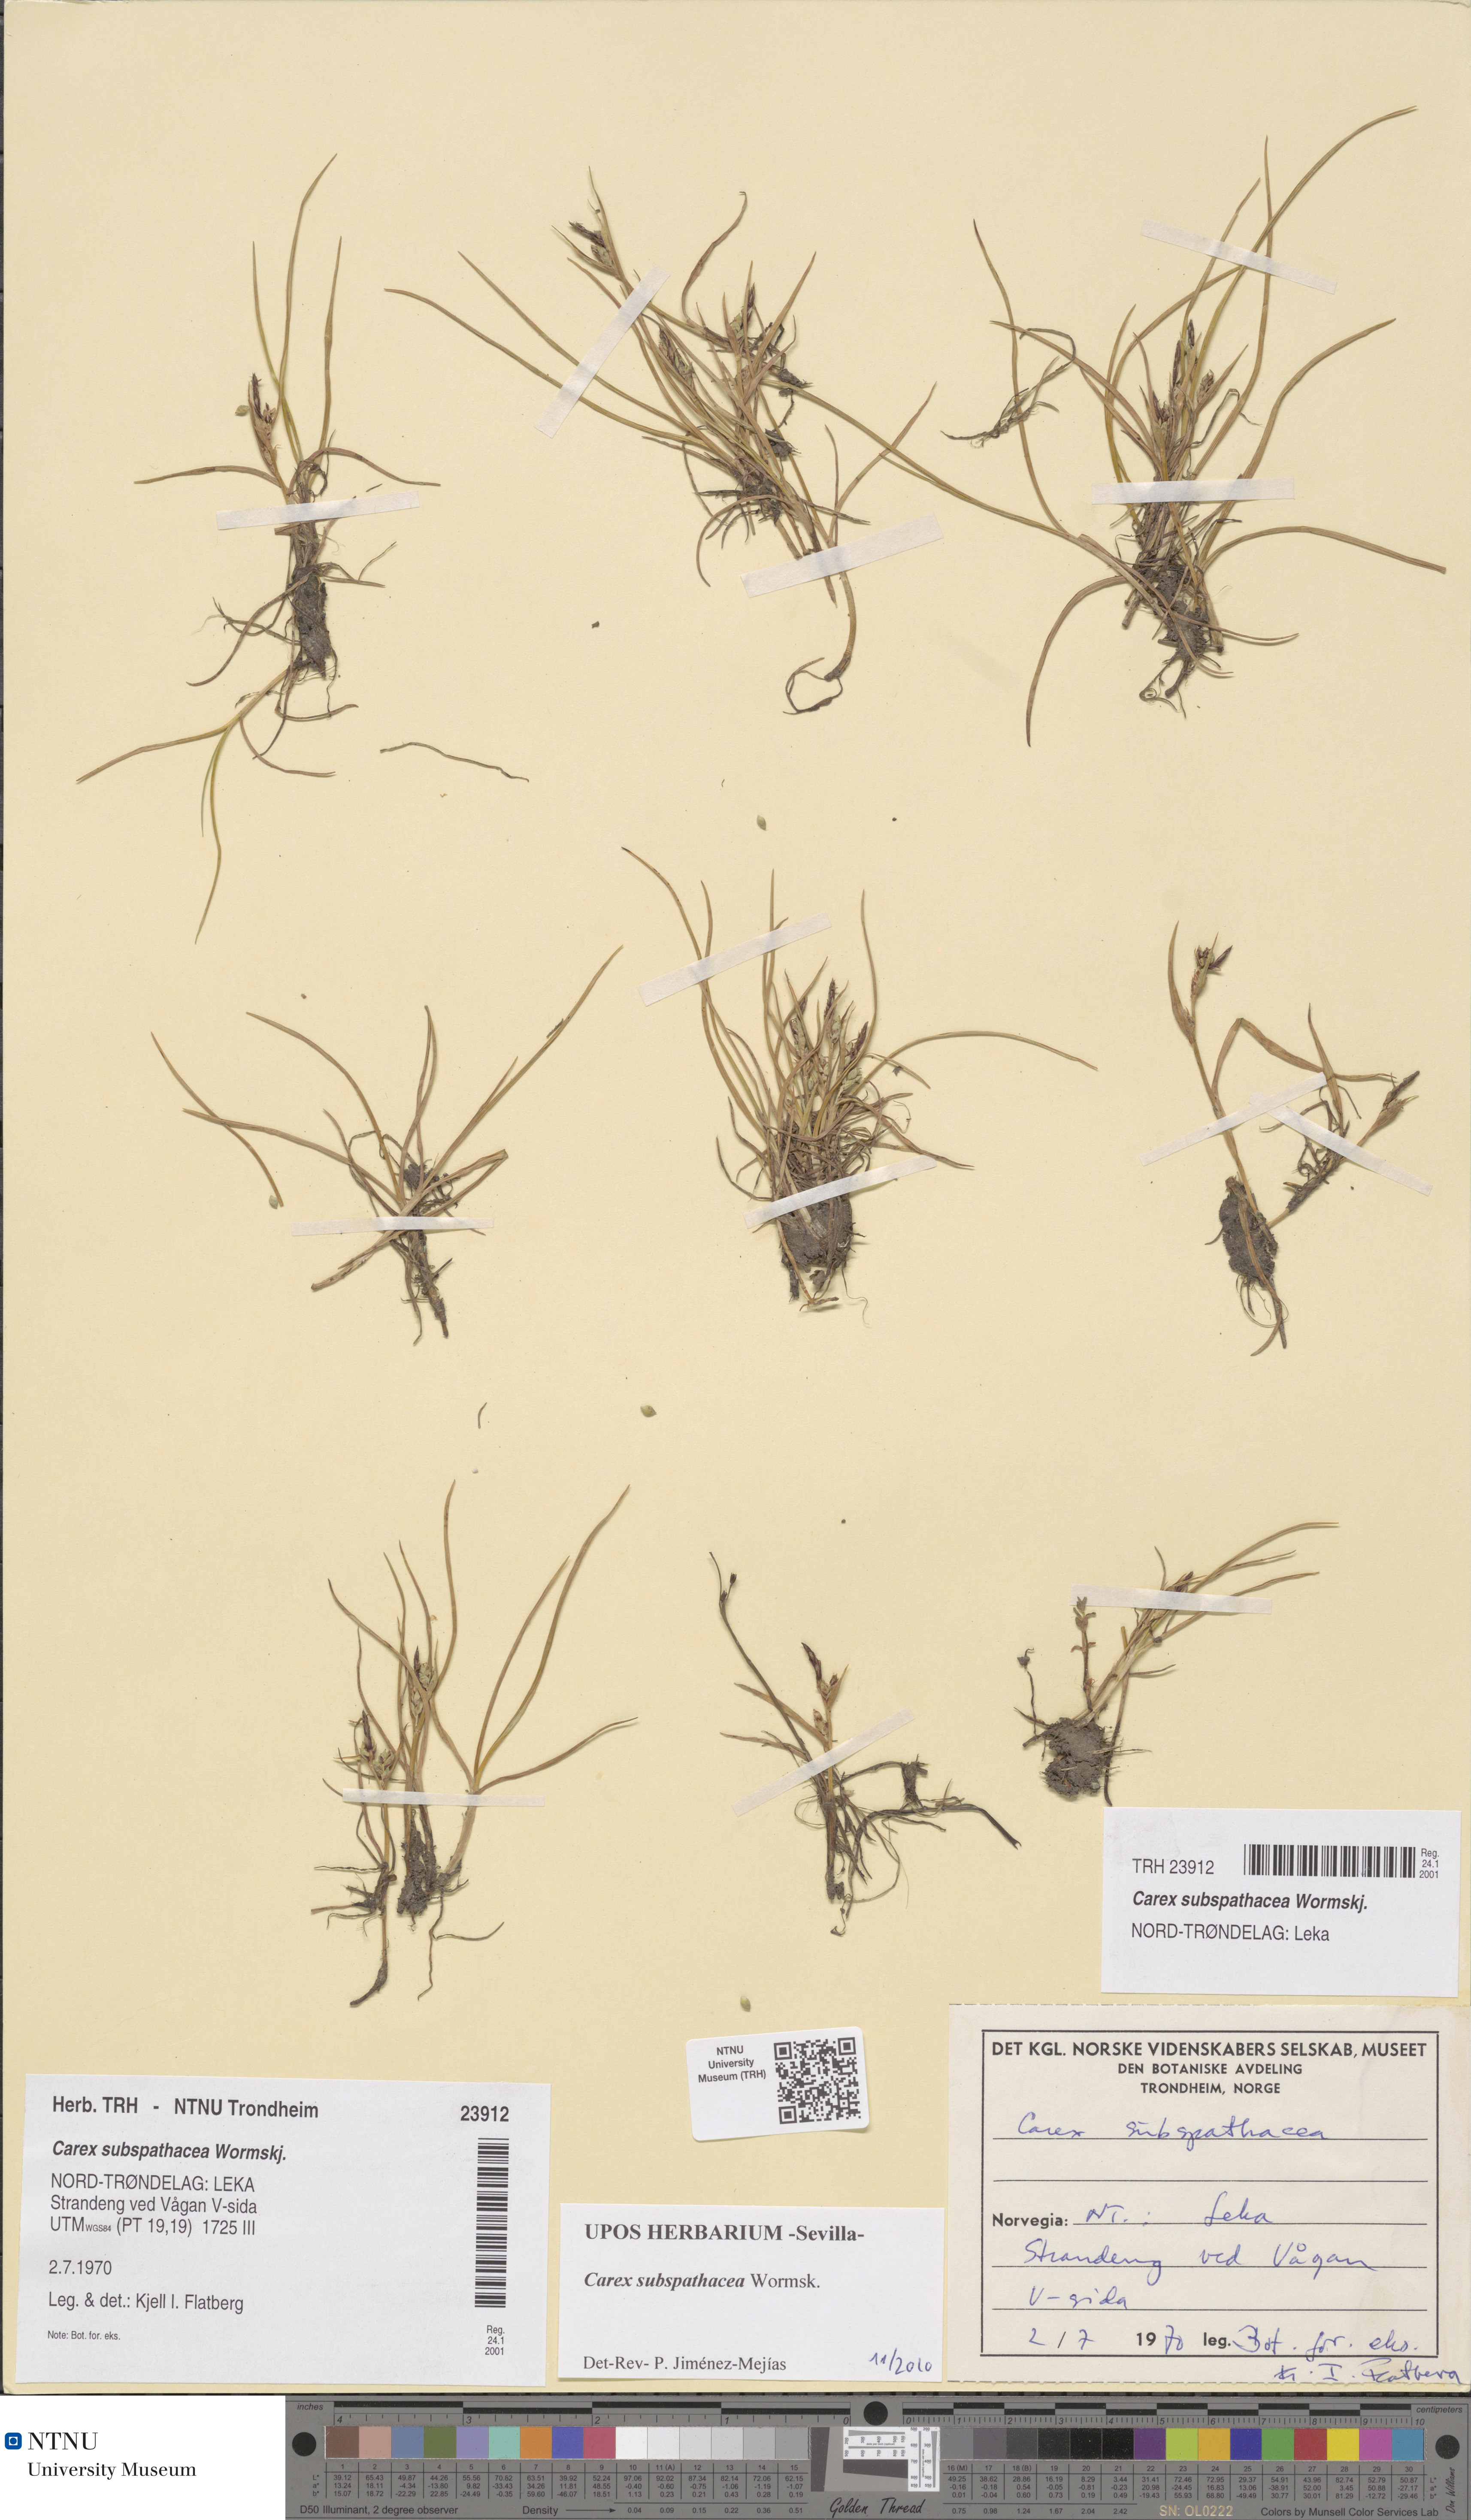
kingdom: Plantae
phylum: Tracheophyta
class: Liliopsida
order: Poales
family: Cyperaceae
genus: Carex
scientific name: Carex subspathacea
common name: Hoppner's sedge
